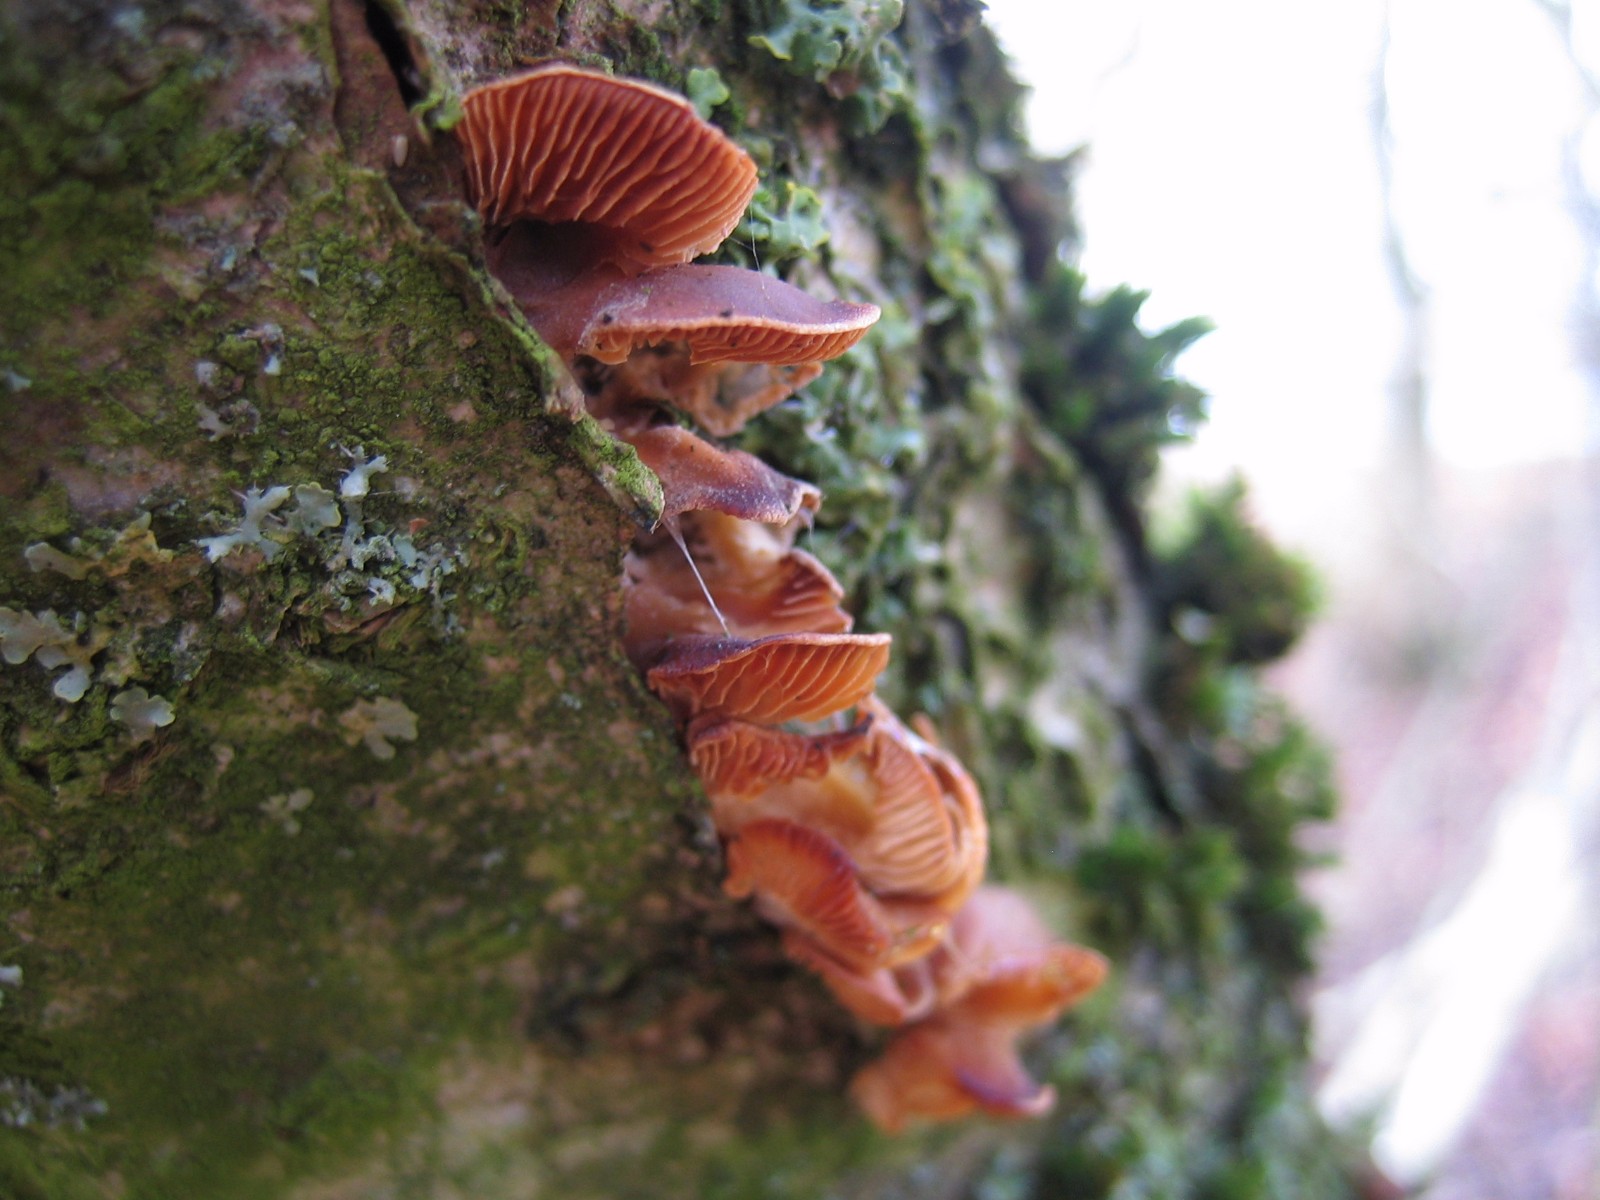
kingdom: Fungi
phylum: Basidiomycota
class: Agaricomycetes
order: Agaricales
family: Physalacriaceae
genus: Flammulina
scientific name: Flammulina velutipes
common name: gul fløjlsfod
